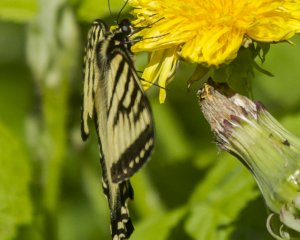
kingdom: Animalia
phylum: Arthropoda
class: Insecta
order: Lepidoptera
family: Papilionidae
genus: Pterourus
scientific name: Pterourus canadensis
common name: Canadian Tiger Swallowtail
